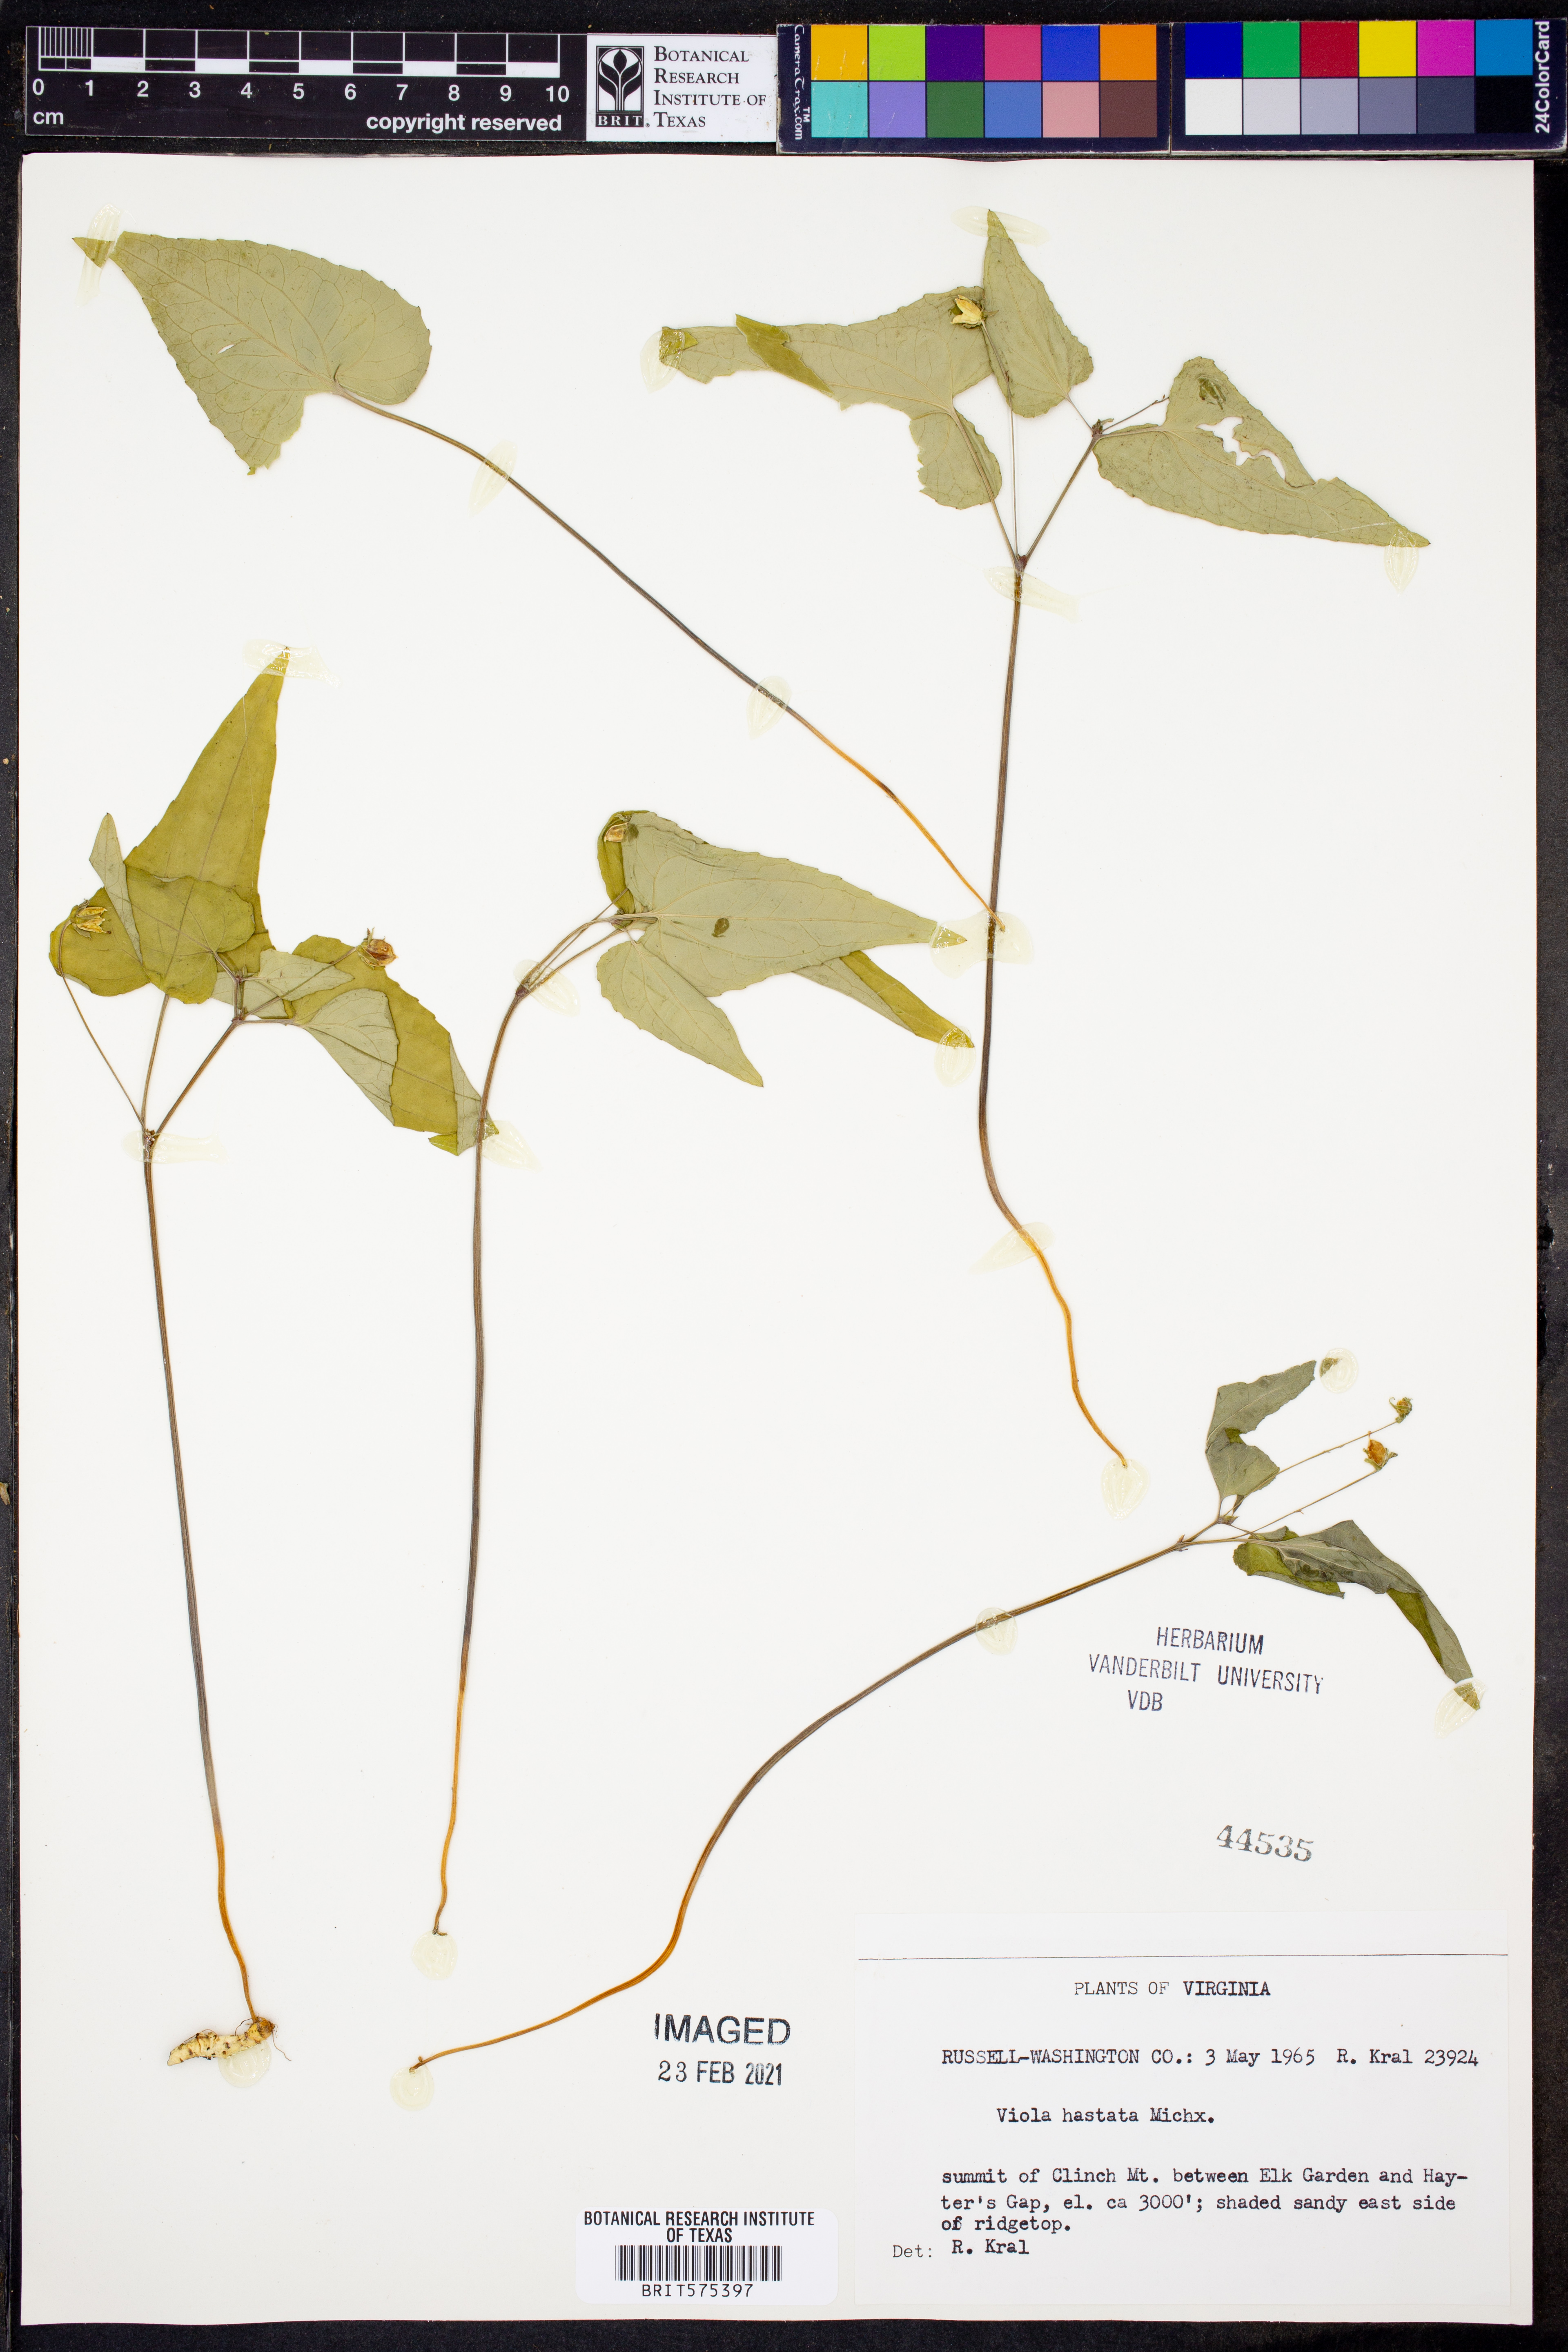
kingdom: Plantae
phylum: Tracheophyta
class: Magnoliopsida
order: Malpighiales
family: Violaceae
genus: Viola
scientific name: Viola hastata
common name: Spear-leaf violet
